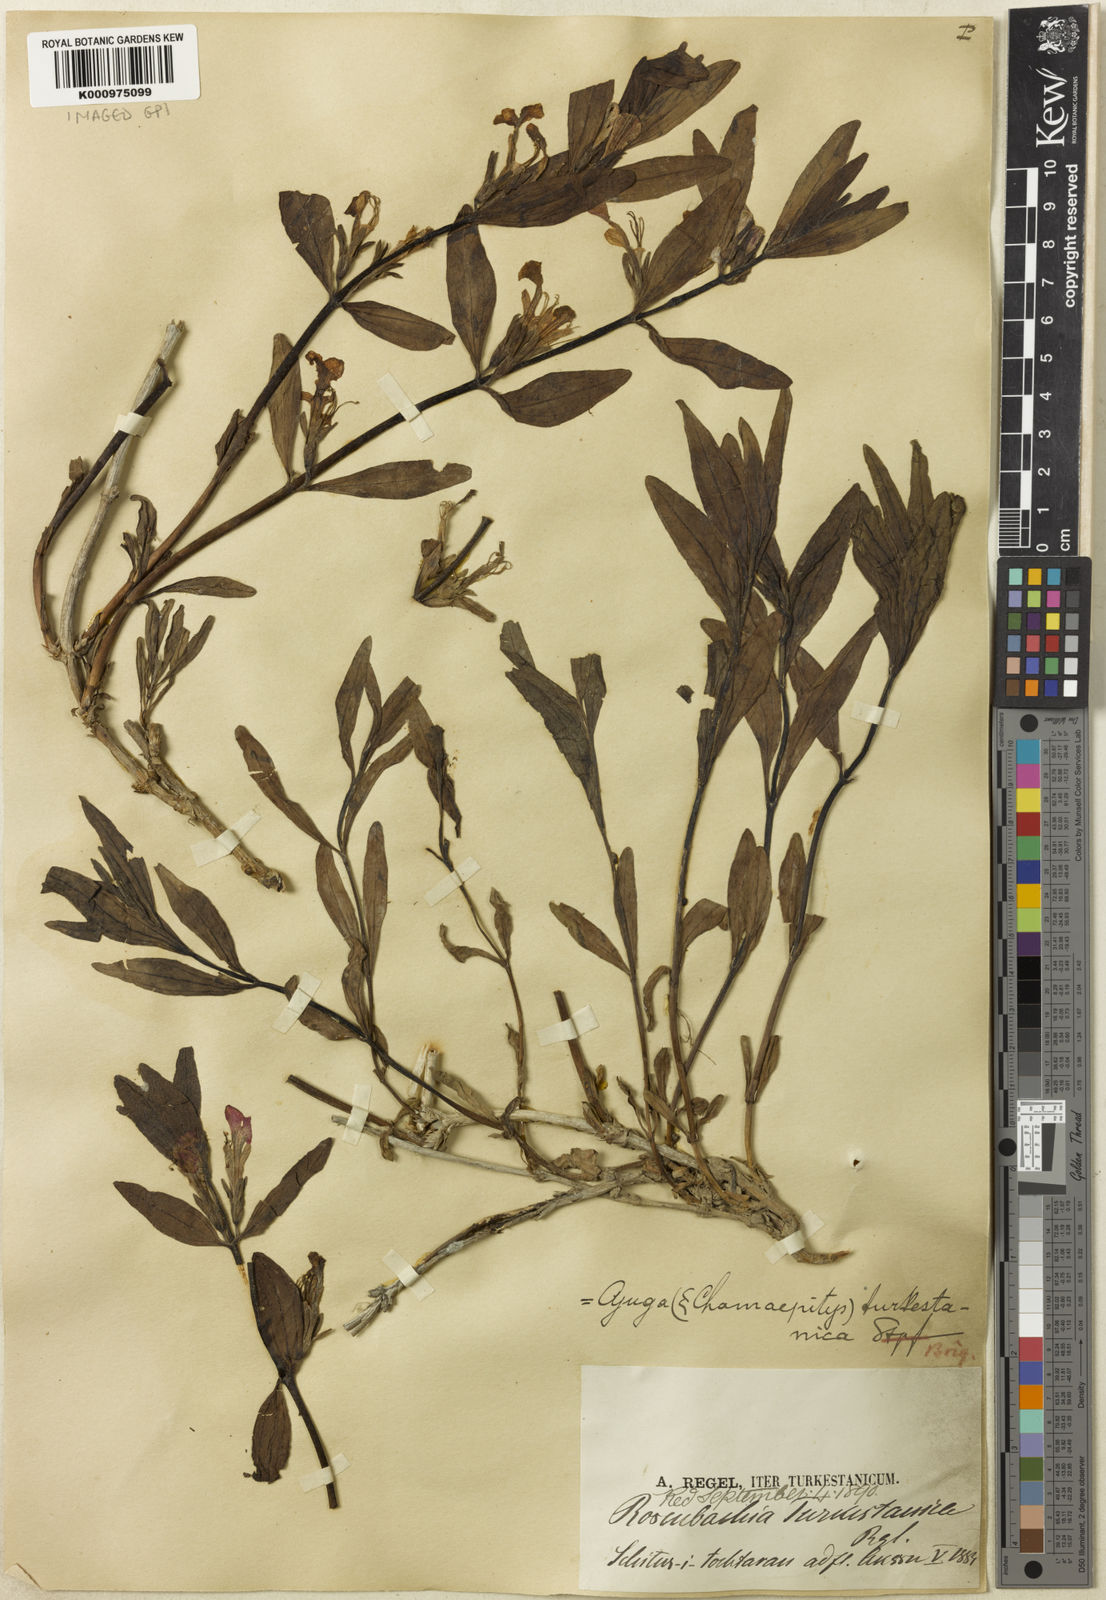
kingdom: Plantae
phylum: Tracheophyta
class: Magnoliopsida
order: Lamiales
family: Lamiaceae
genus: Ajuga
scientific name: Ajuga turkestanica
